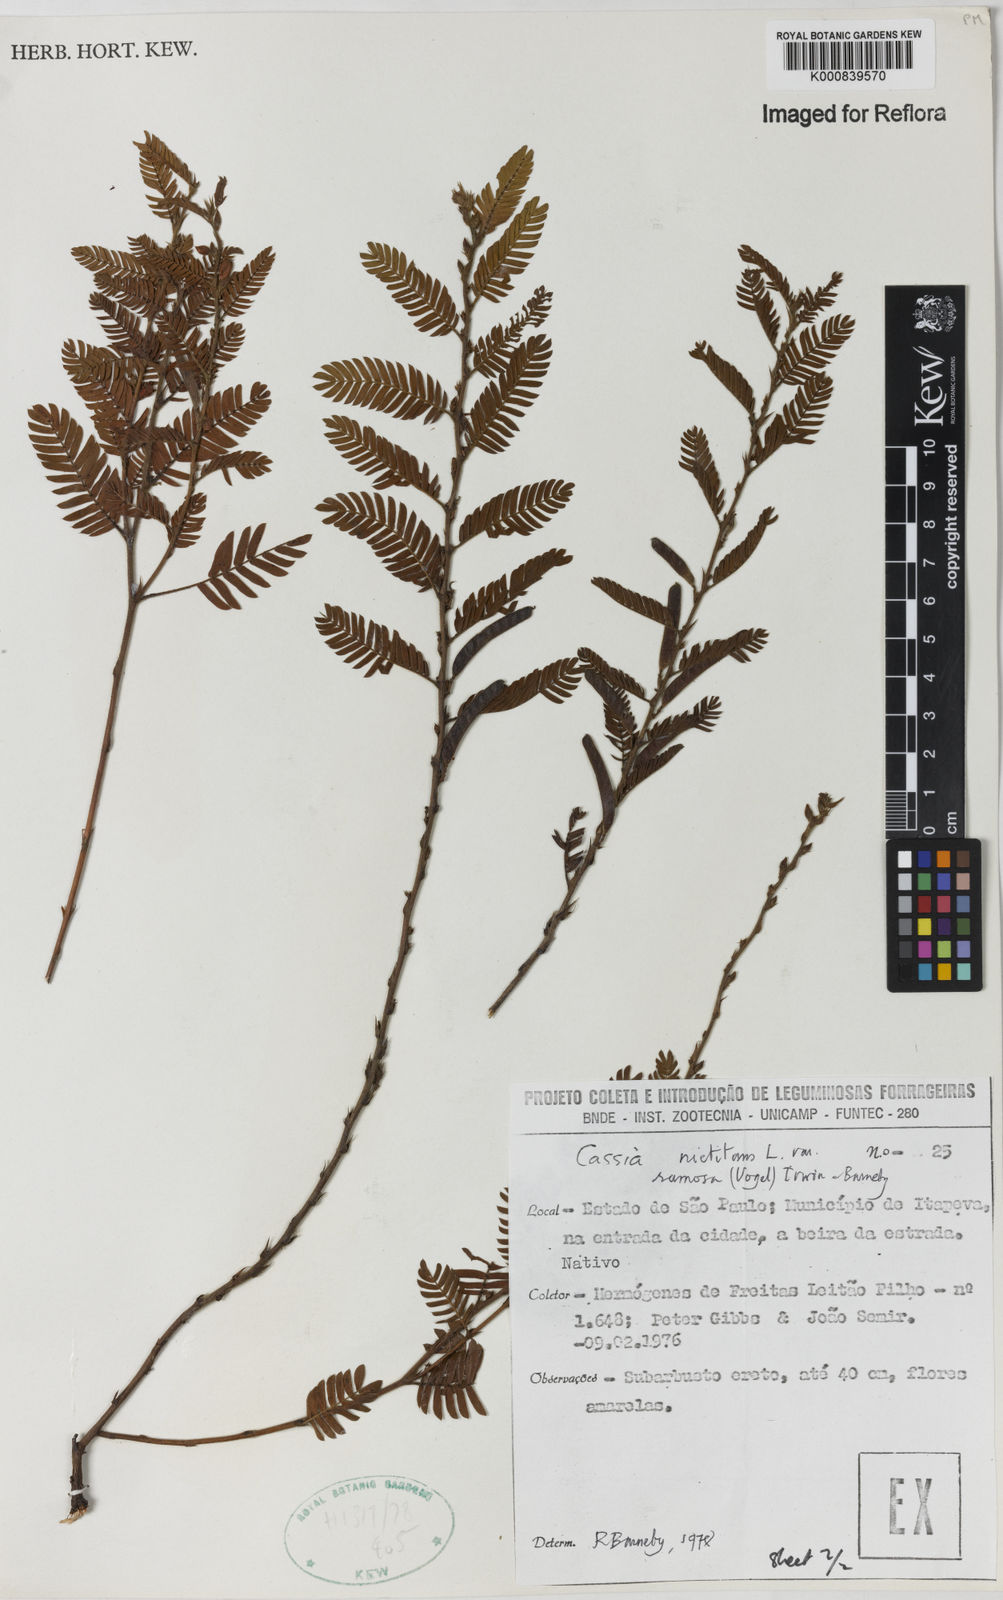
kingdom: Plantae
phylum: Tracheophyta
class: Magnoliopsida
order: Fabales
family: Fabaceae
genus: Chamaecrista
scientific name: Chamaecrista nictitans
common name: Sensitive cassia
